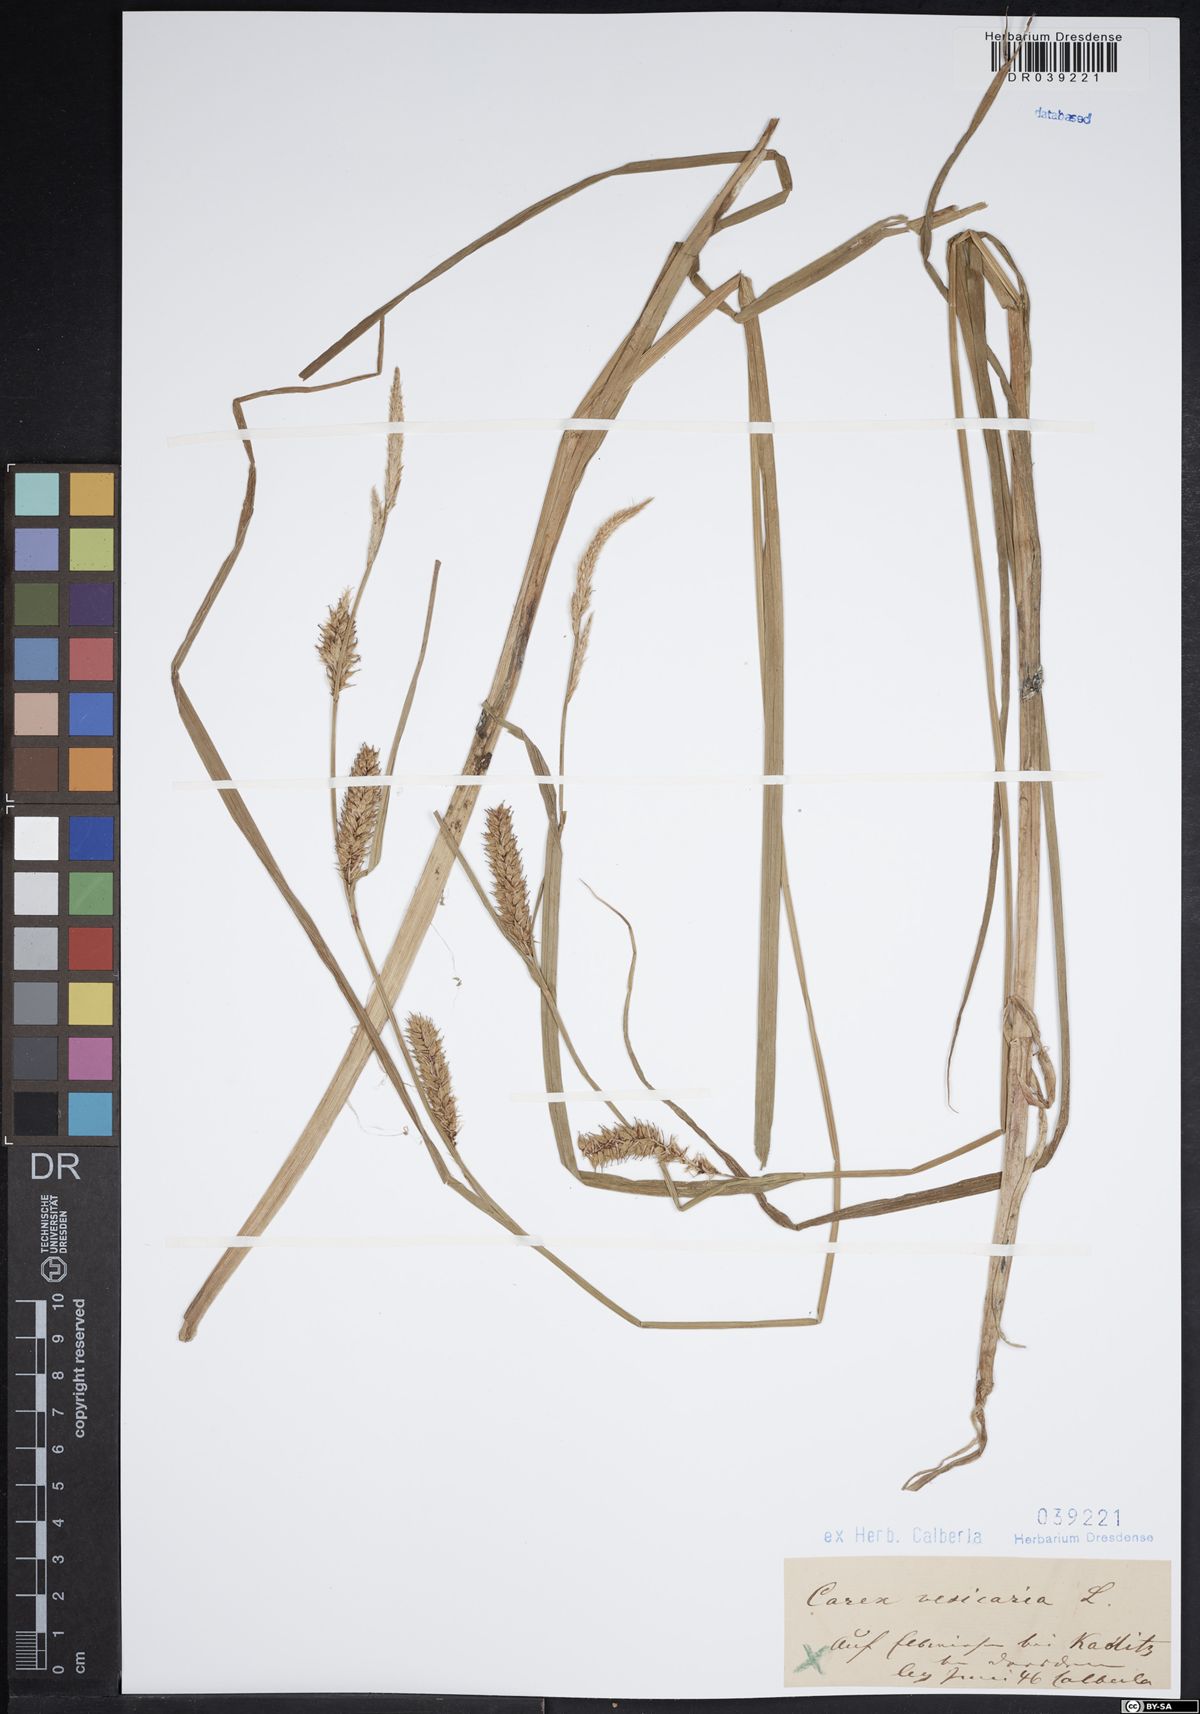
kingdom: Plantae
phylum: Tracheophyta
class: Liliopsida
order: Poales
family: Cyperaceae
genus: Carex
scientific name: Carex vesicaria
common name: Bladder-sedge
